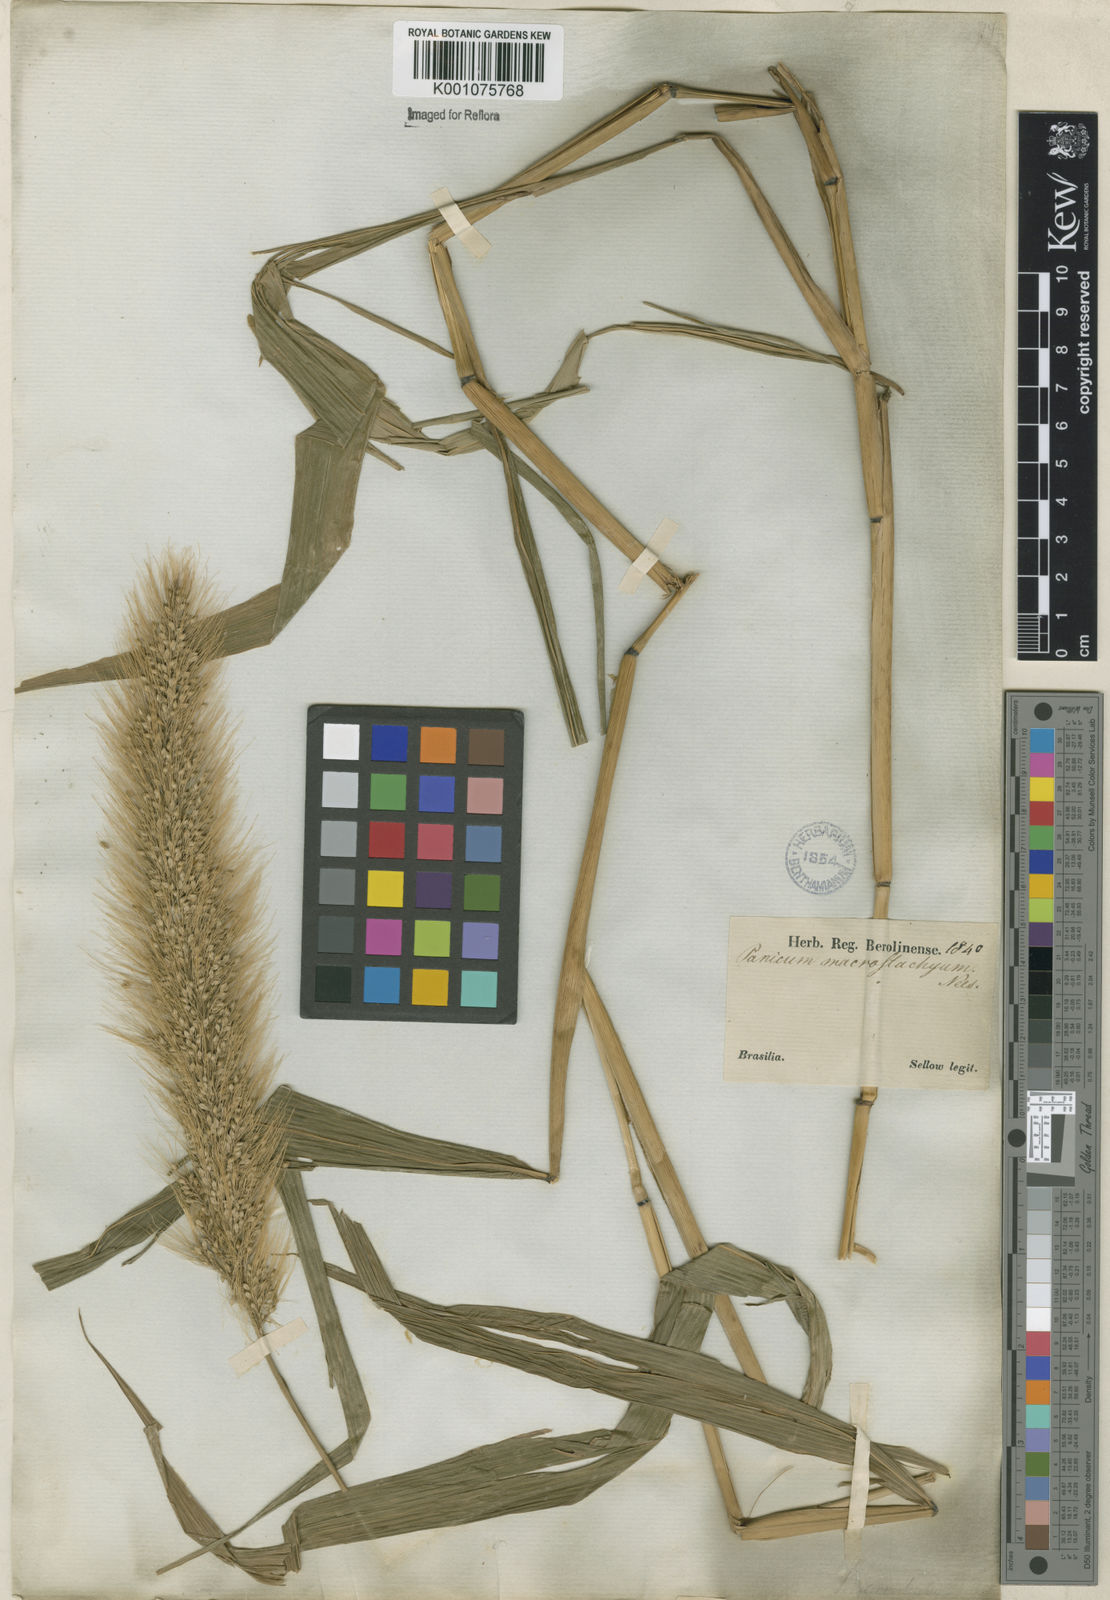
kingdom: Plantae
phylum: Tracheophyta
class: Liliopsida
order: Poales
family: Poaceae
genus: Setaria
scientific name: Setaria vulpiseta
